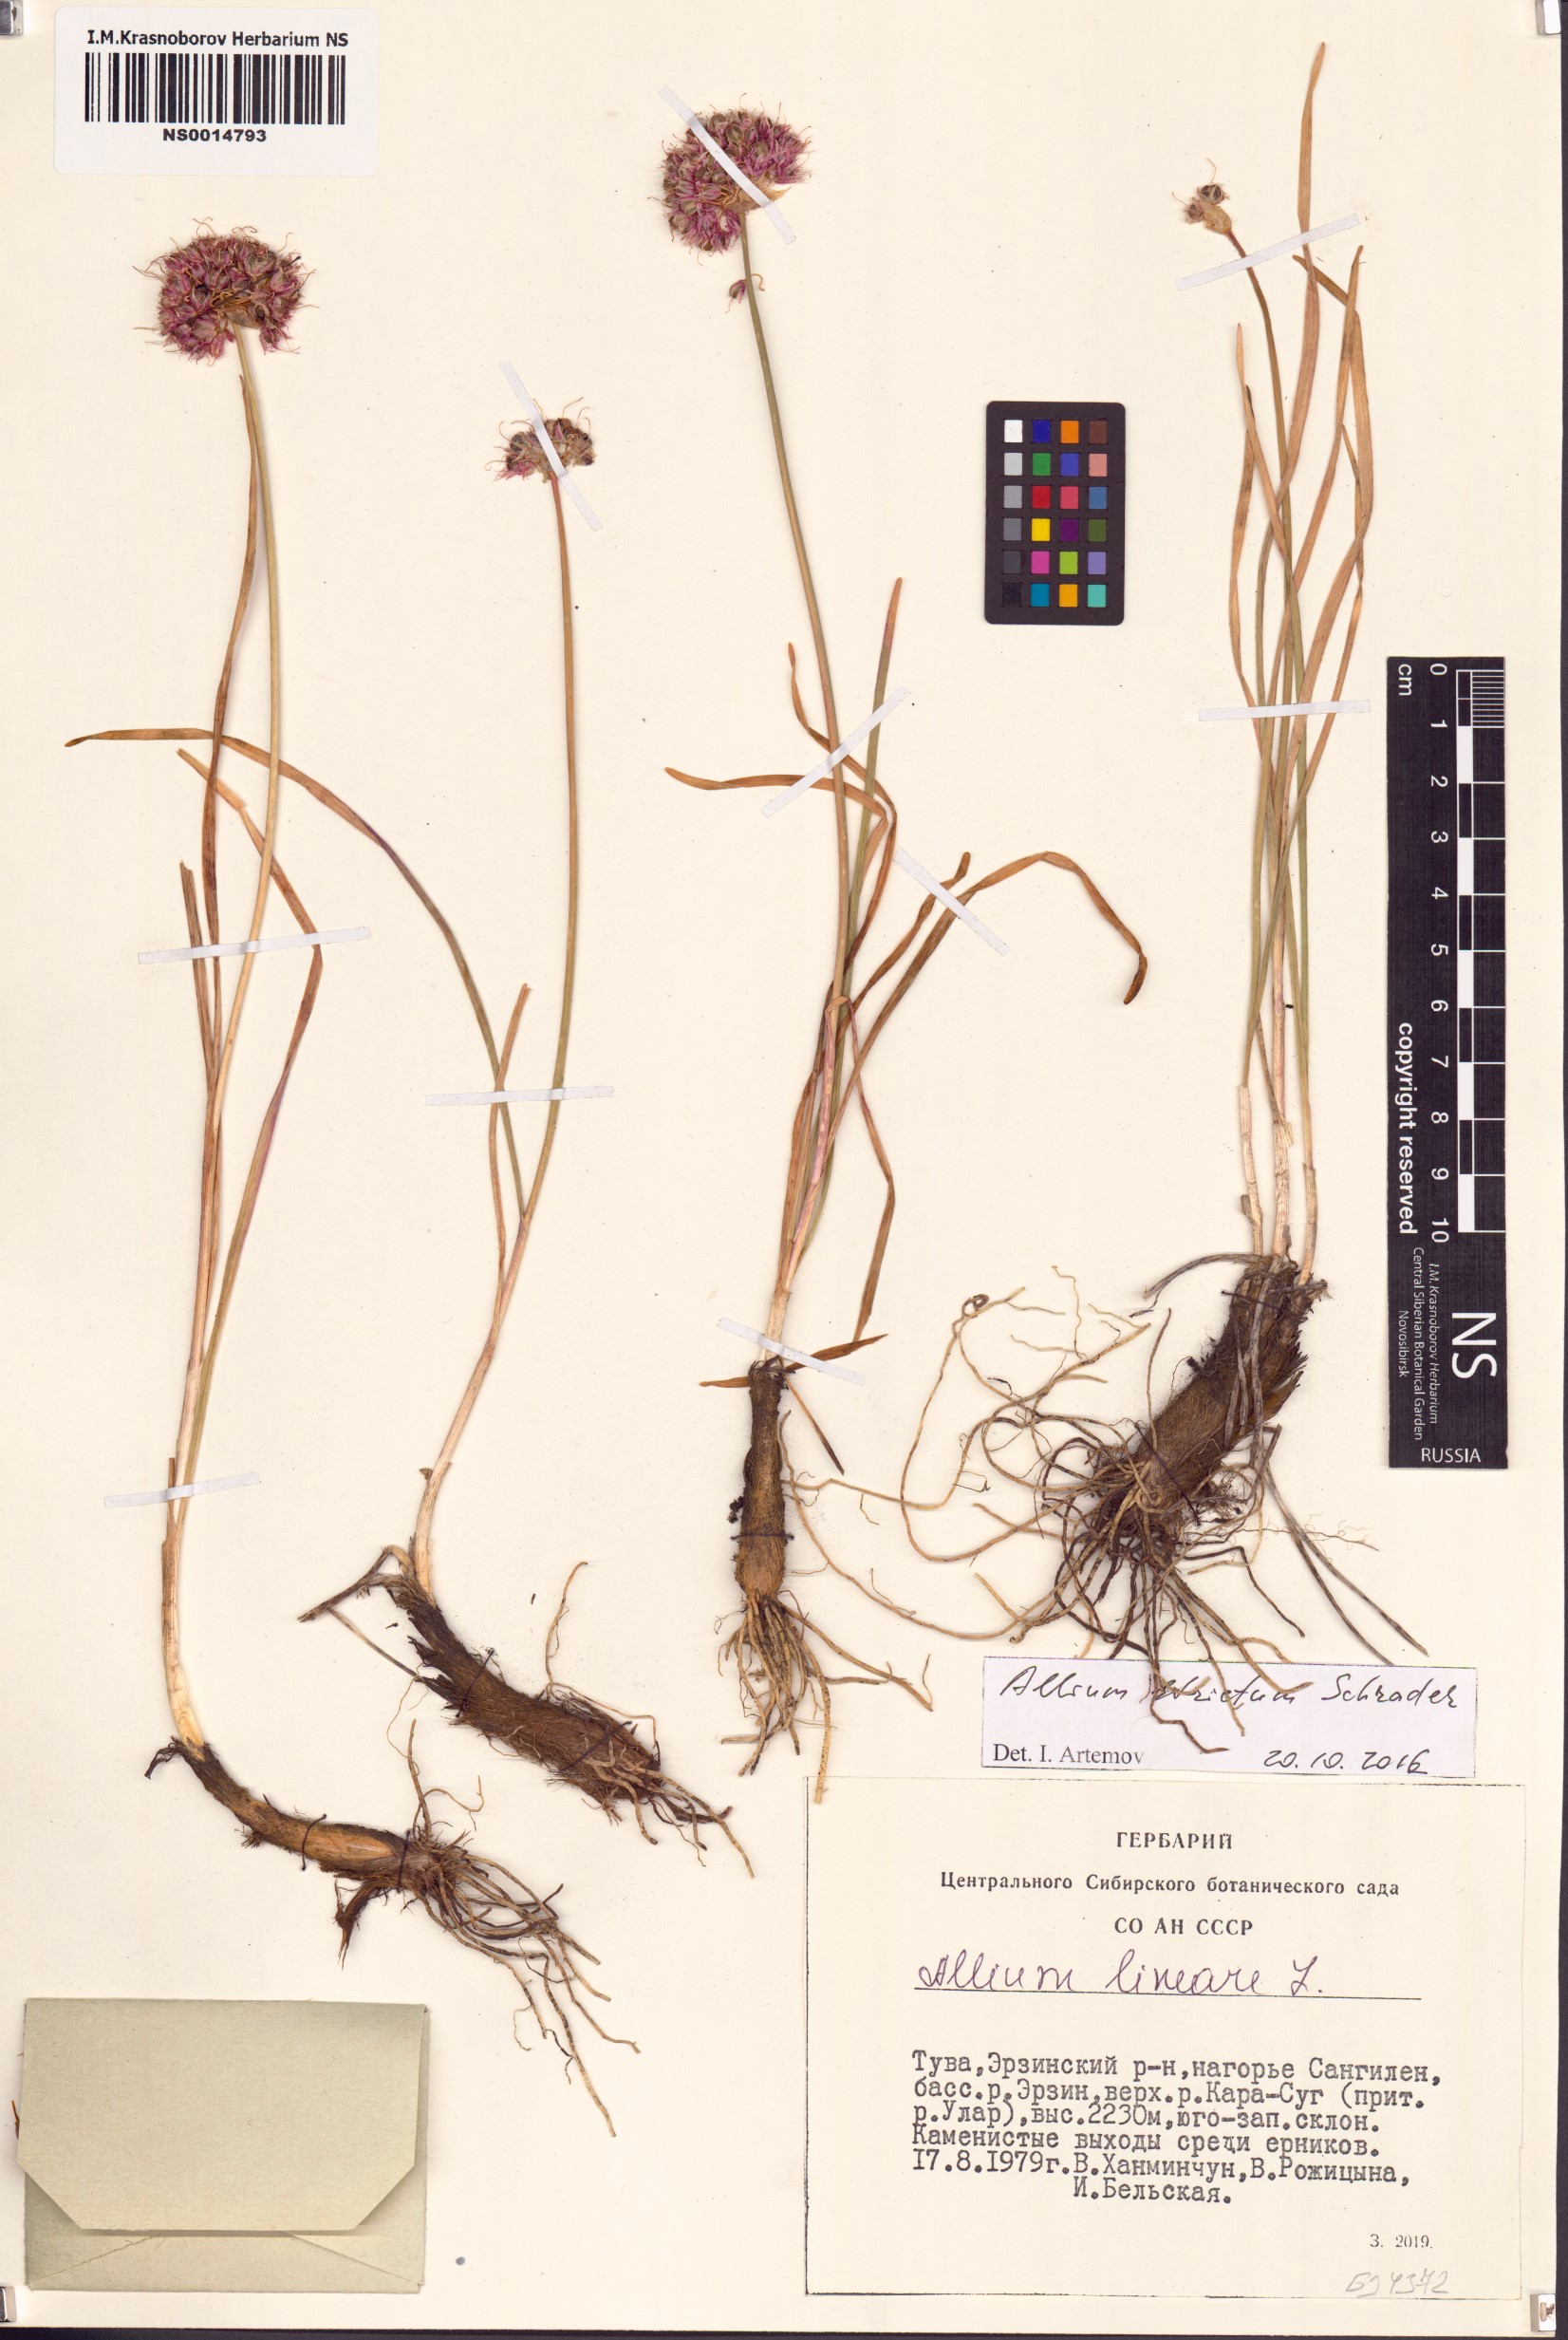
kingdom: Plantae
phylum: Tracheophyta
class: Liliopsida
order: Asparagales
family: Amaryllidaceae
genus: Allium
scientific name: Allium strictum
